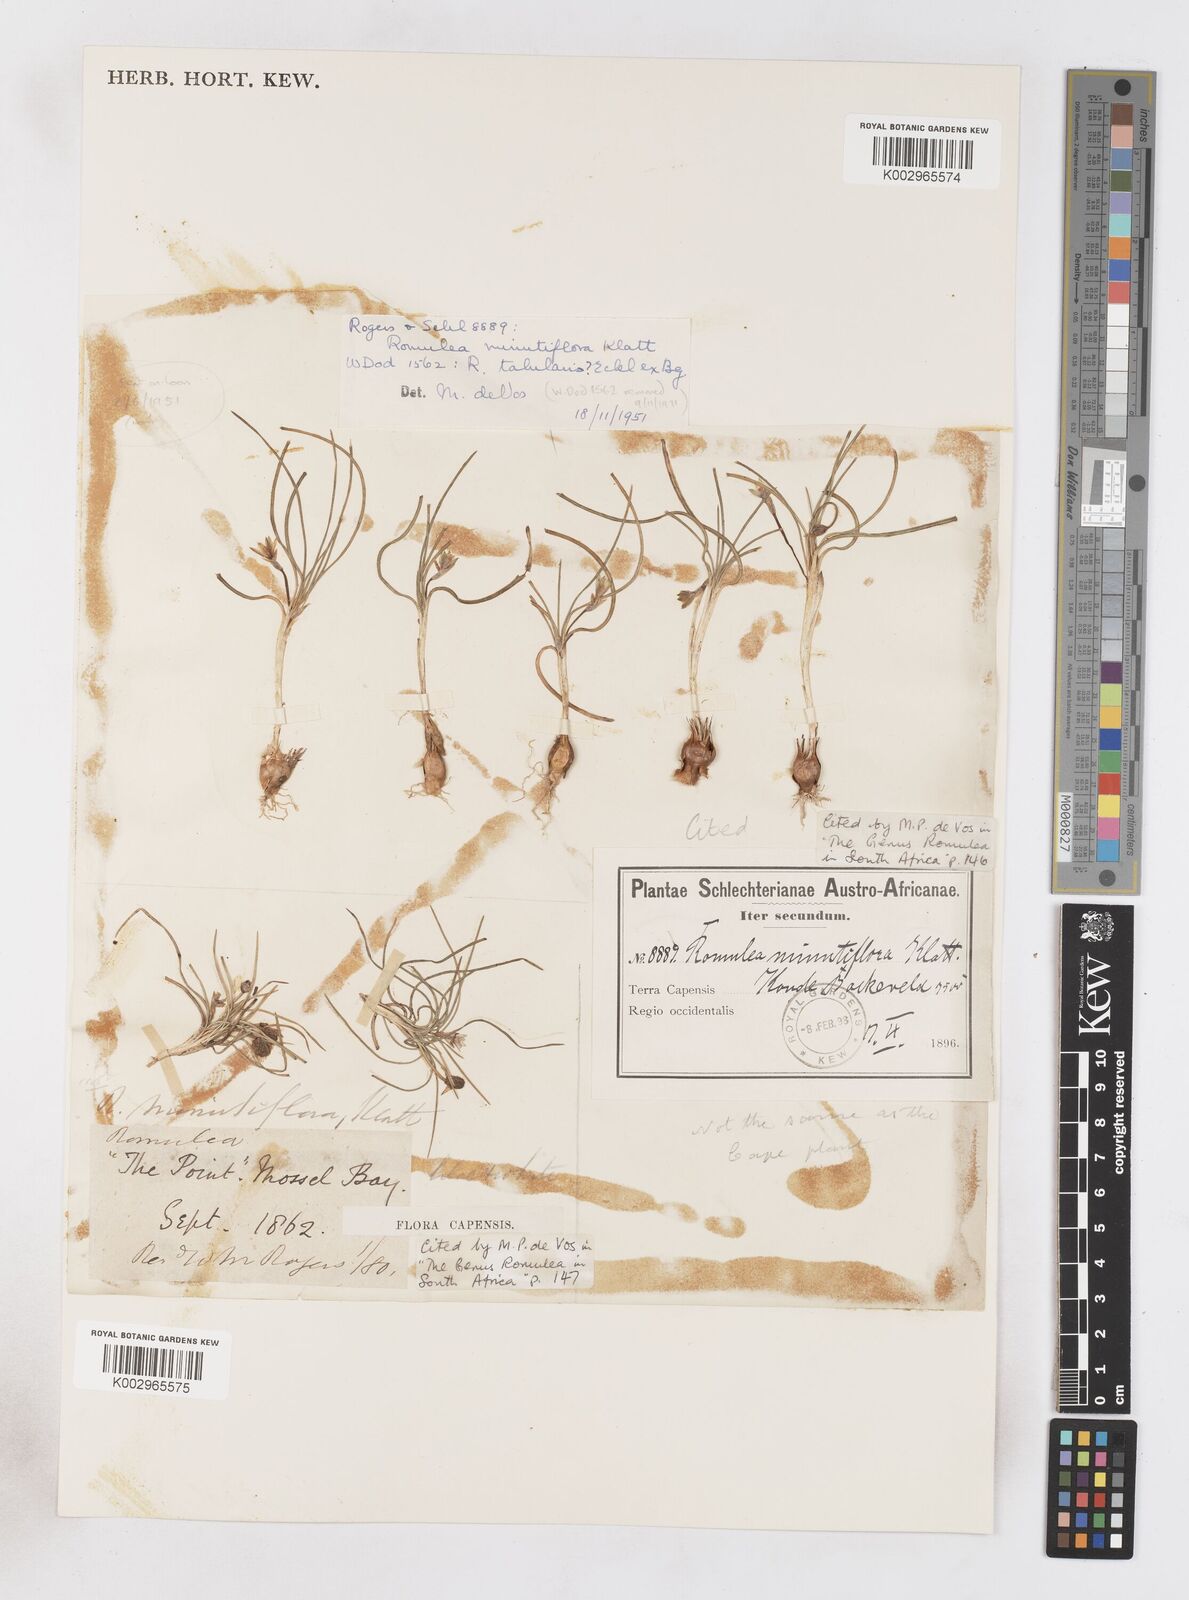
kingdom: Plantae
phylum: Tracheophyta
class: Liliopsida
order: Asparagales
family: Iridaceae
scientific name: Iridaceae
